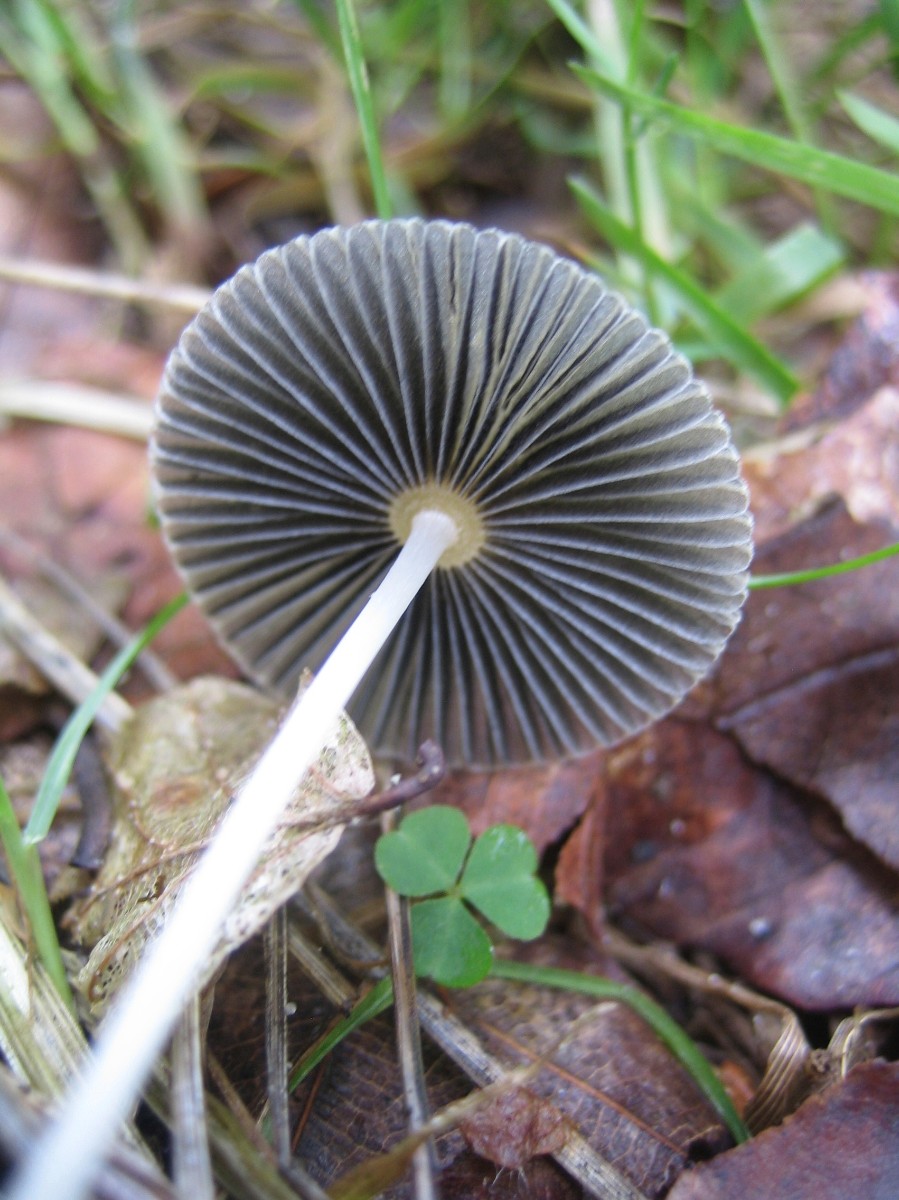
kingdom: Fungi
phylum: Basidiomycota
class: Agaricomycetes
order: Agaricales
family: Psathyrellaceae
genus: Parasola
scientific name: Parasola
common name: hjulhat
